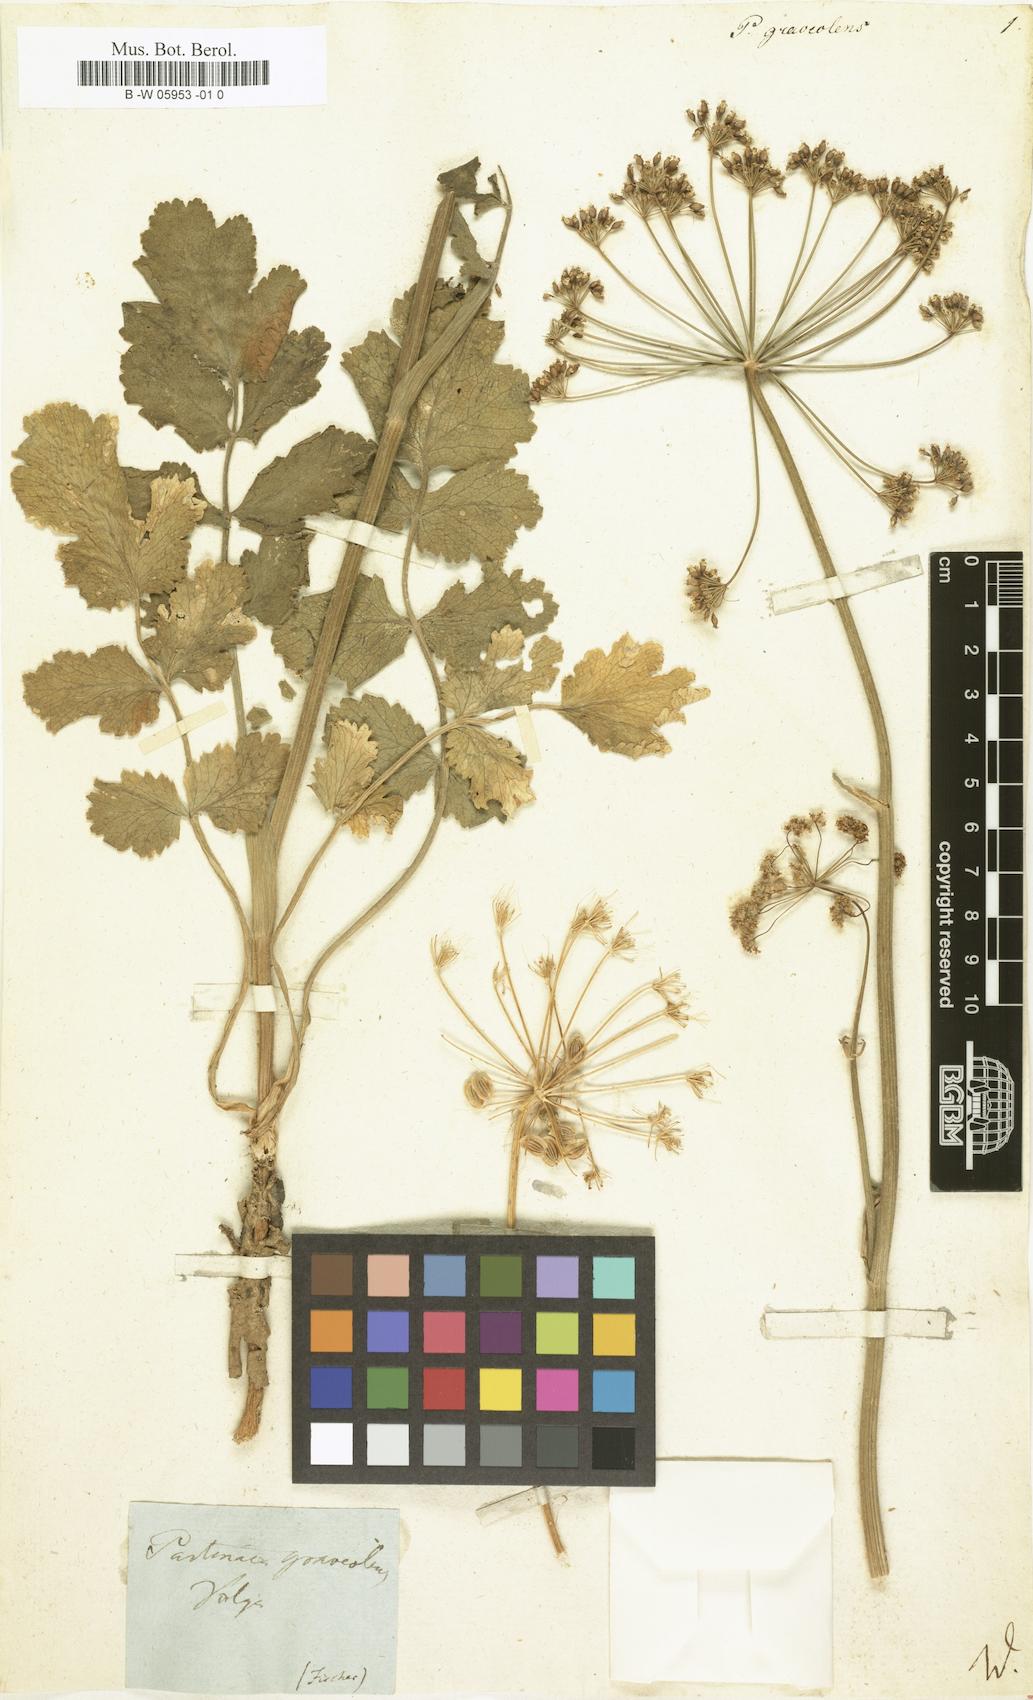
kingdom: Plantae
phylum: Tracheophyta
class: Magnoliopsida
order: Apiales
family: Apiaceae
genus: Pastinaca
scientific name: Pastinaca clausii
